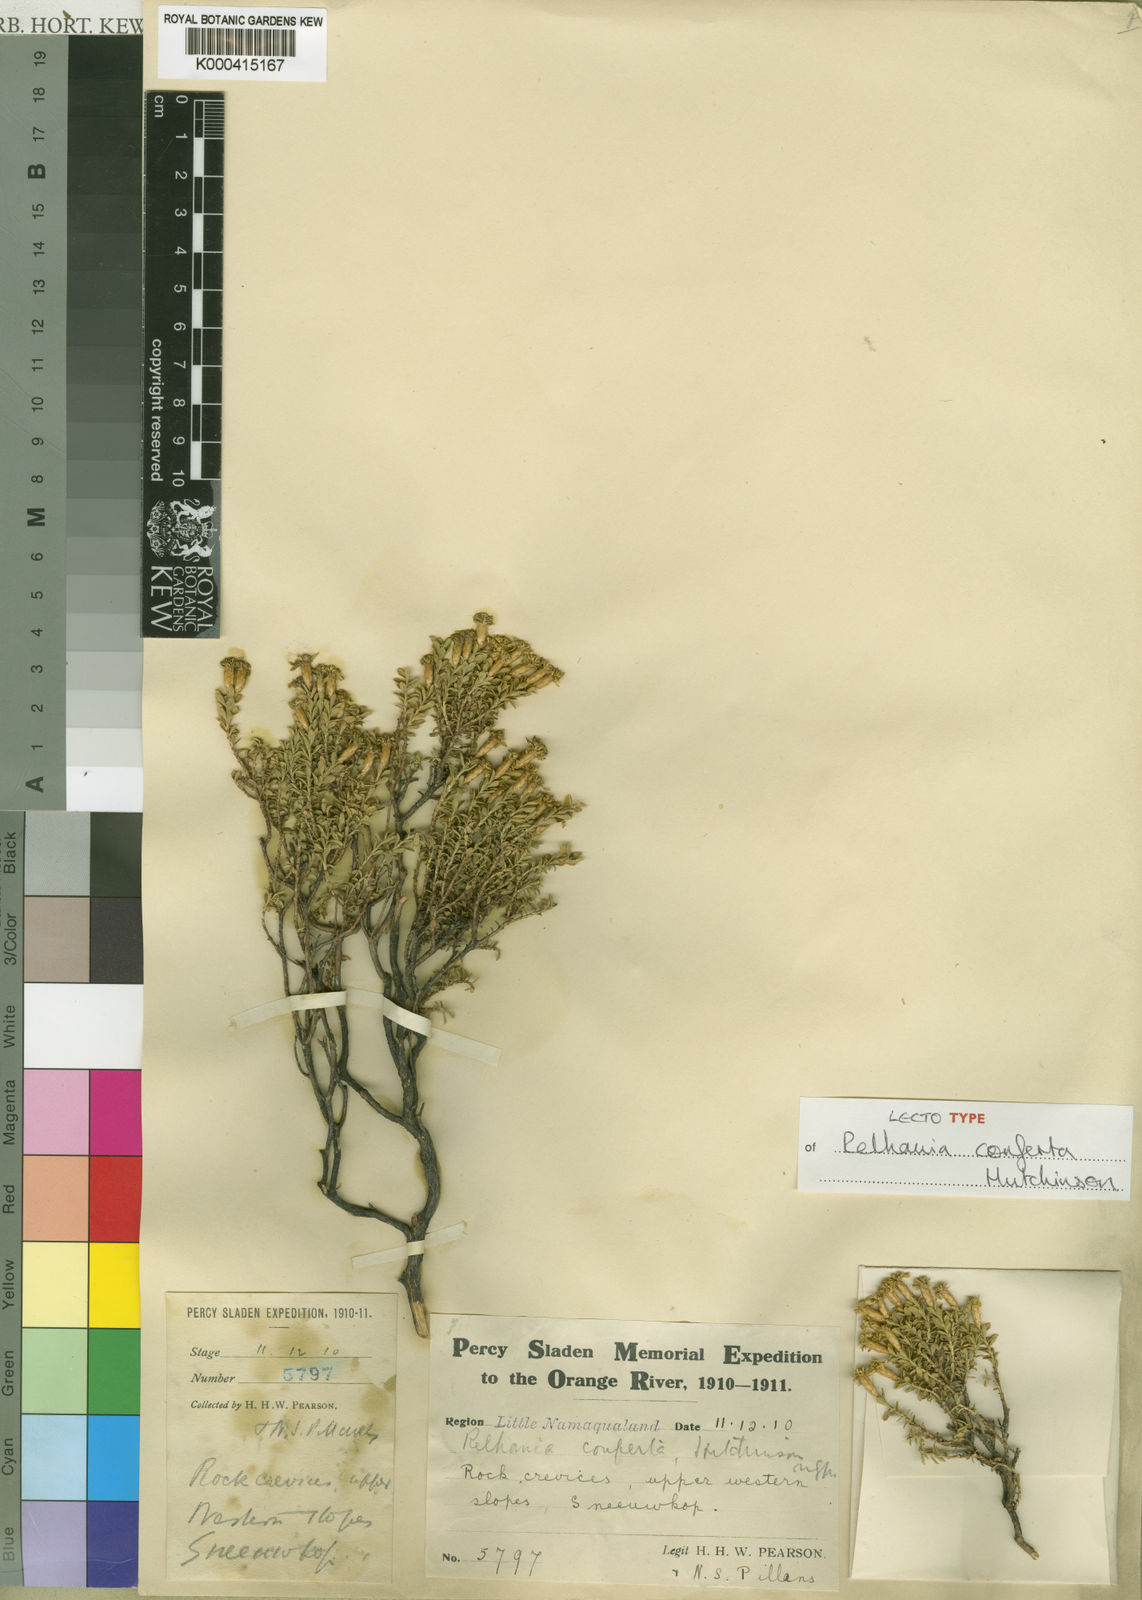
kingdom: Plantae
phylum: Tracheophyta
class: Magnoliopsida
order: Asterales
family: Asteraceae
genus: Oedera
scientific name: Oedera conferta
